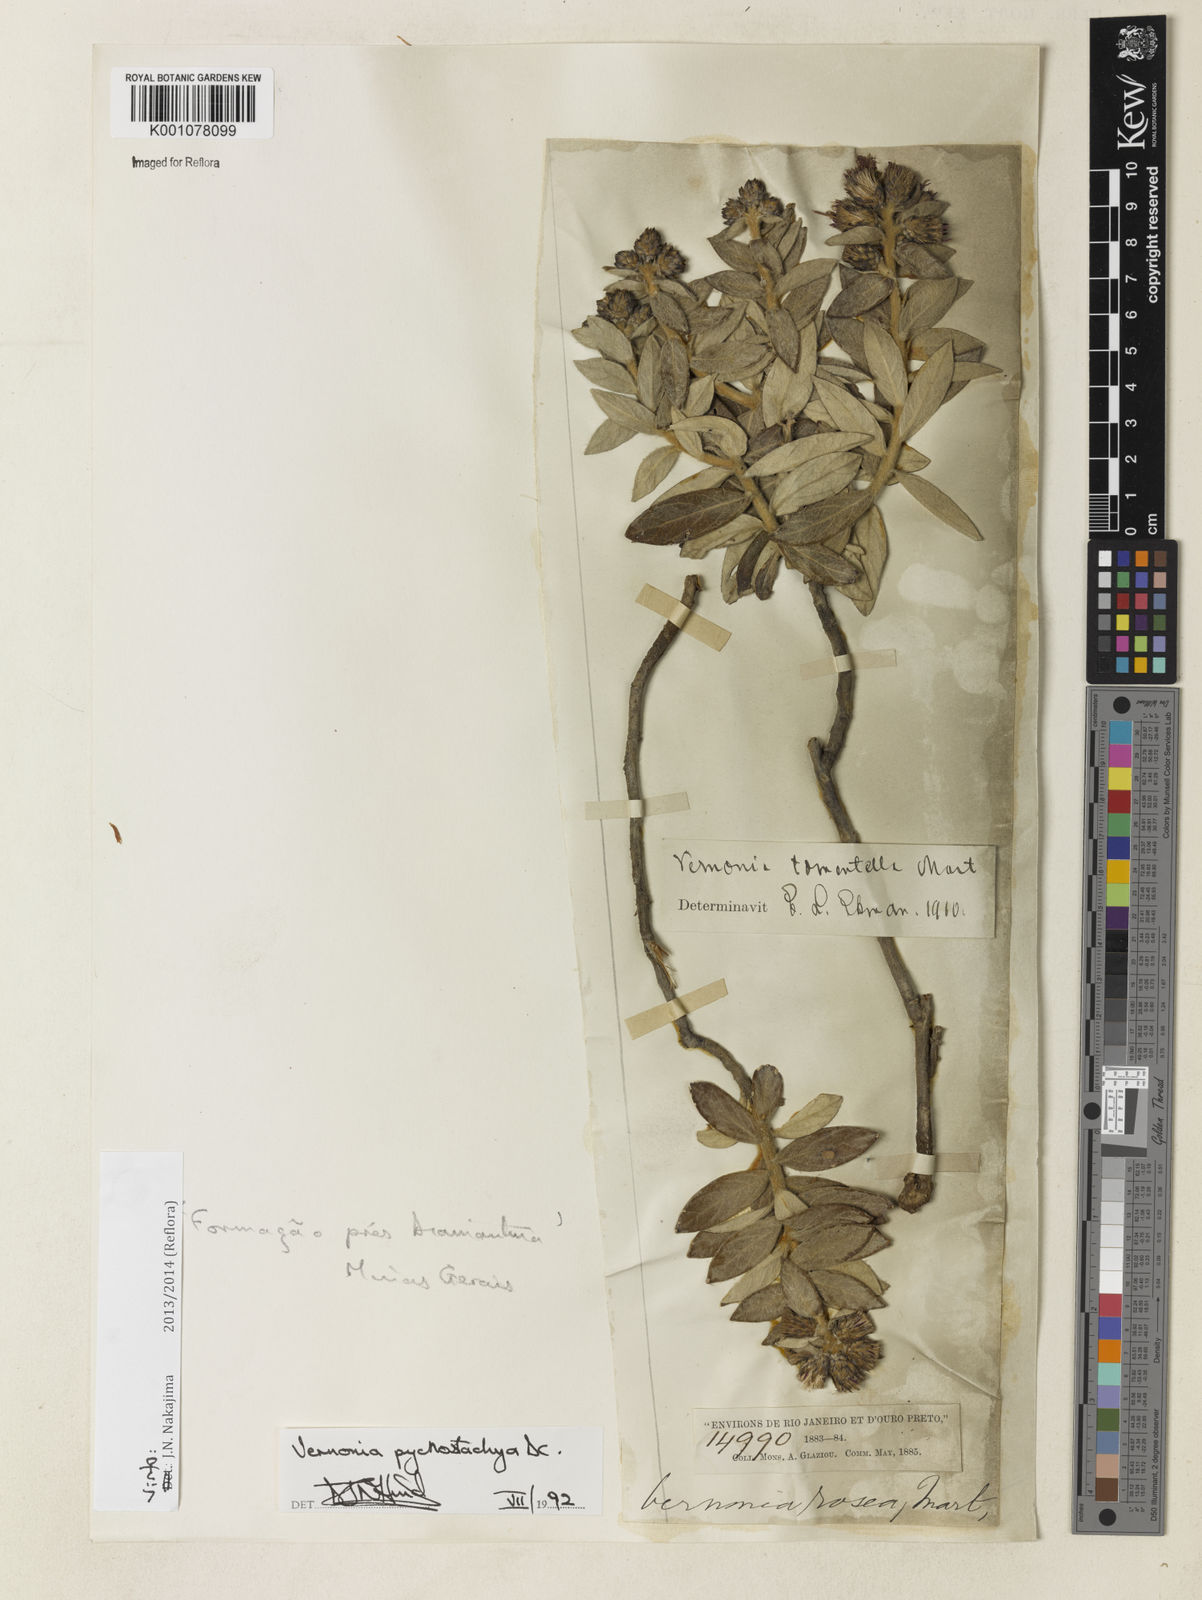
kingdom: Plantae
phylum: Tracheophyta
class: Magnoliopsida
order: Asterales
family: Asteraceae
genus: Lessingianthus
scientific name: Lessingianthus pycnostachyus
